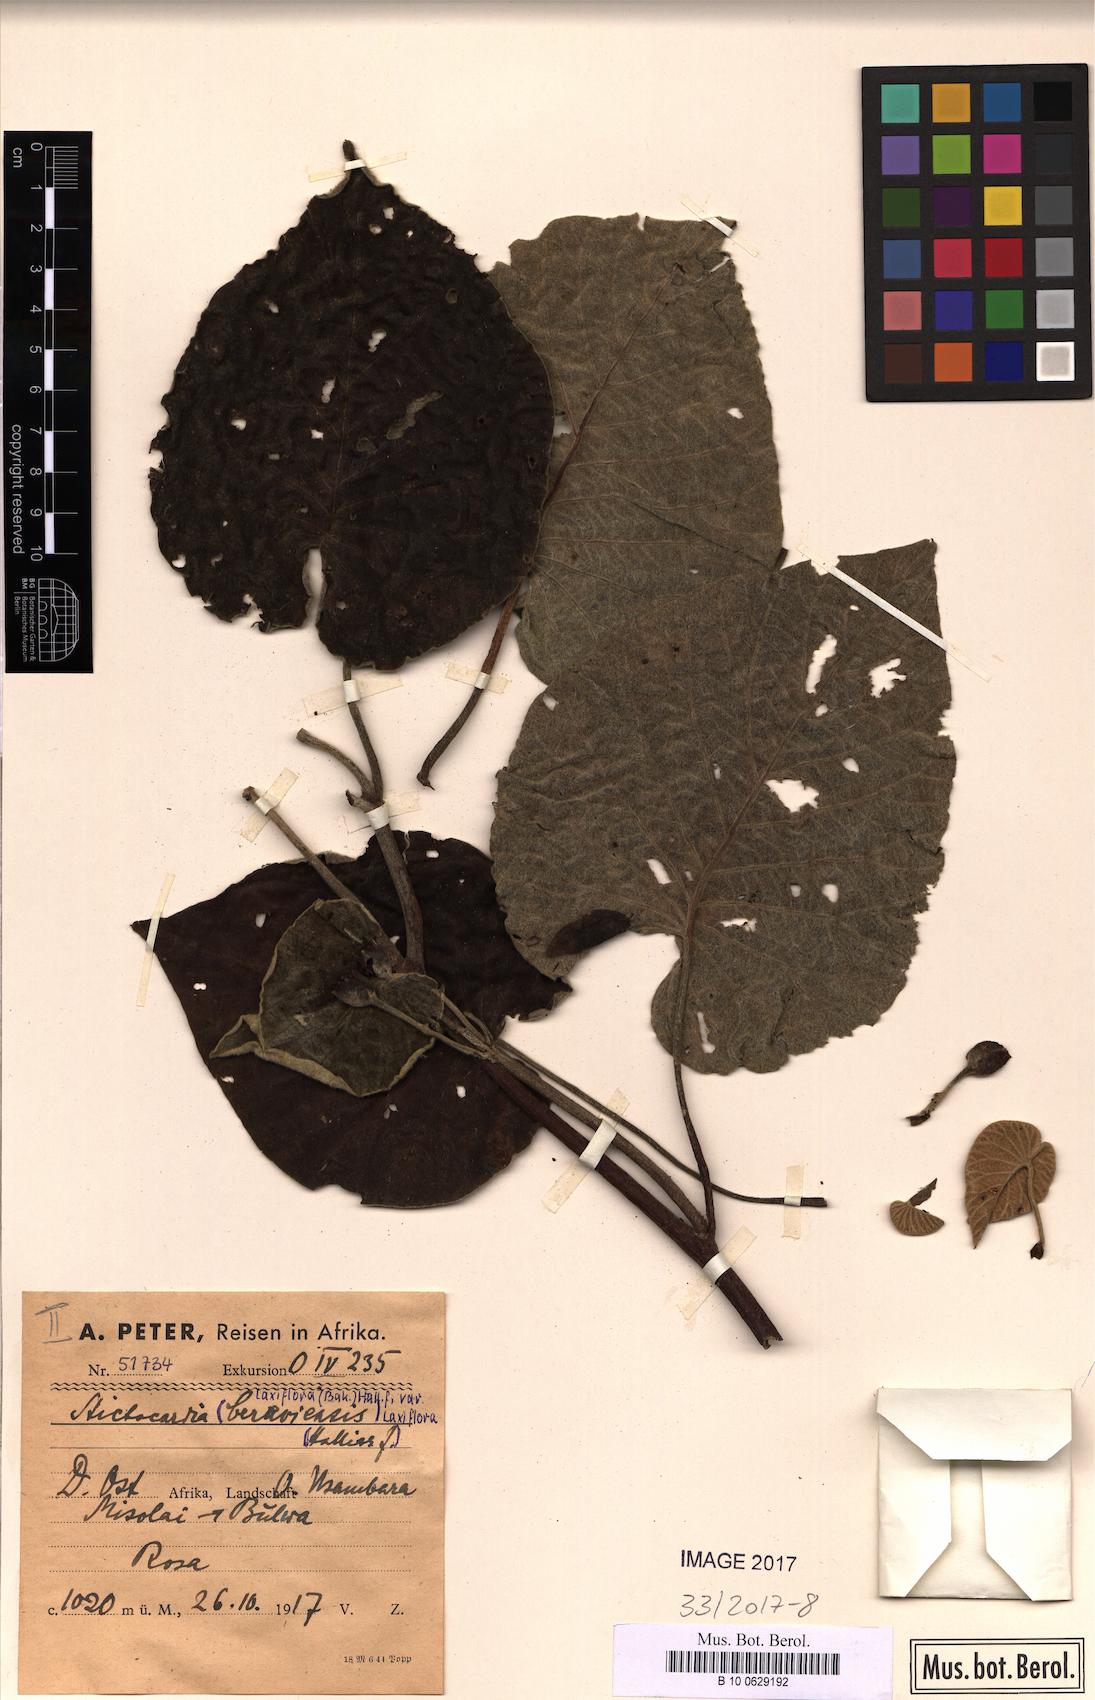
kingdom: Plantae
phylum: Tracheophyta
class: Magnoliopsida
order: Solanales
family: Convolvulaceae
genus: Stictocardia
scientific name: Stictocardia laxiflora
